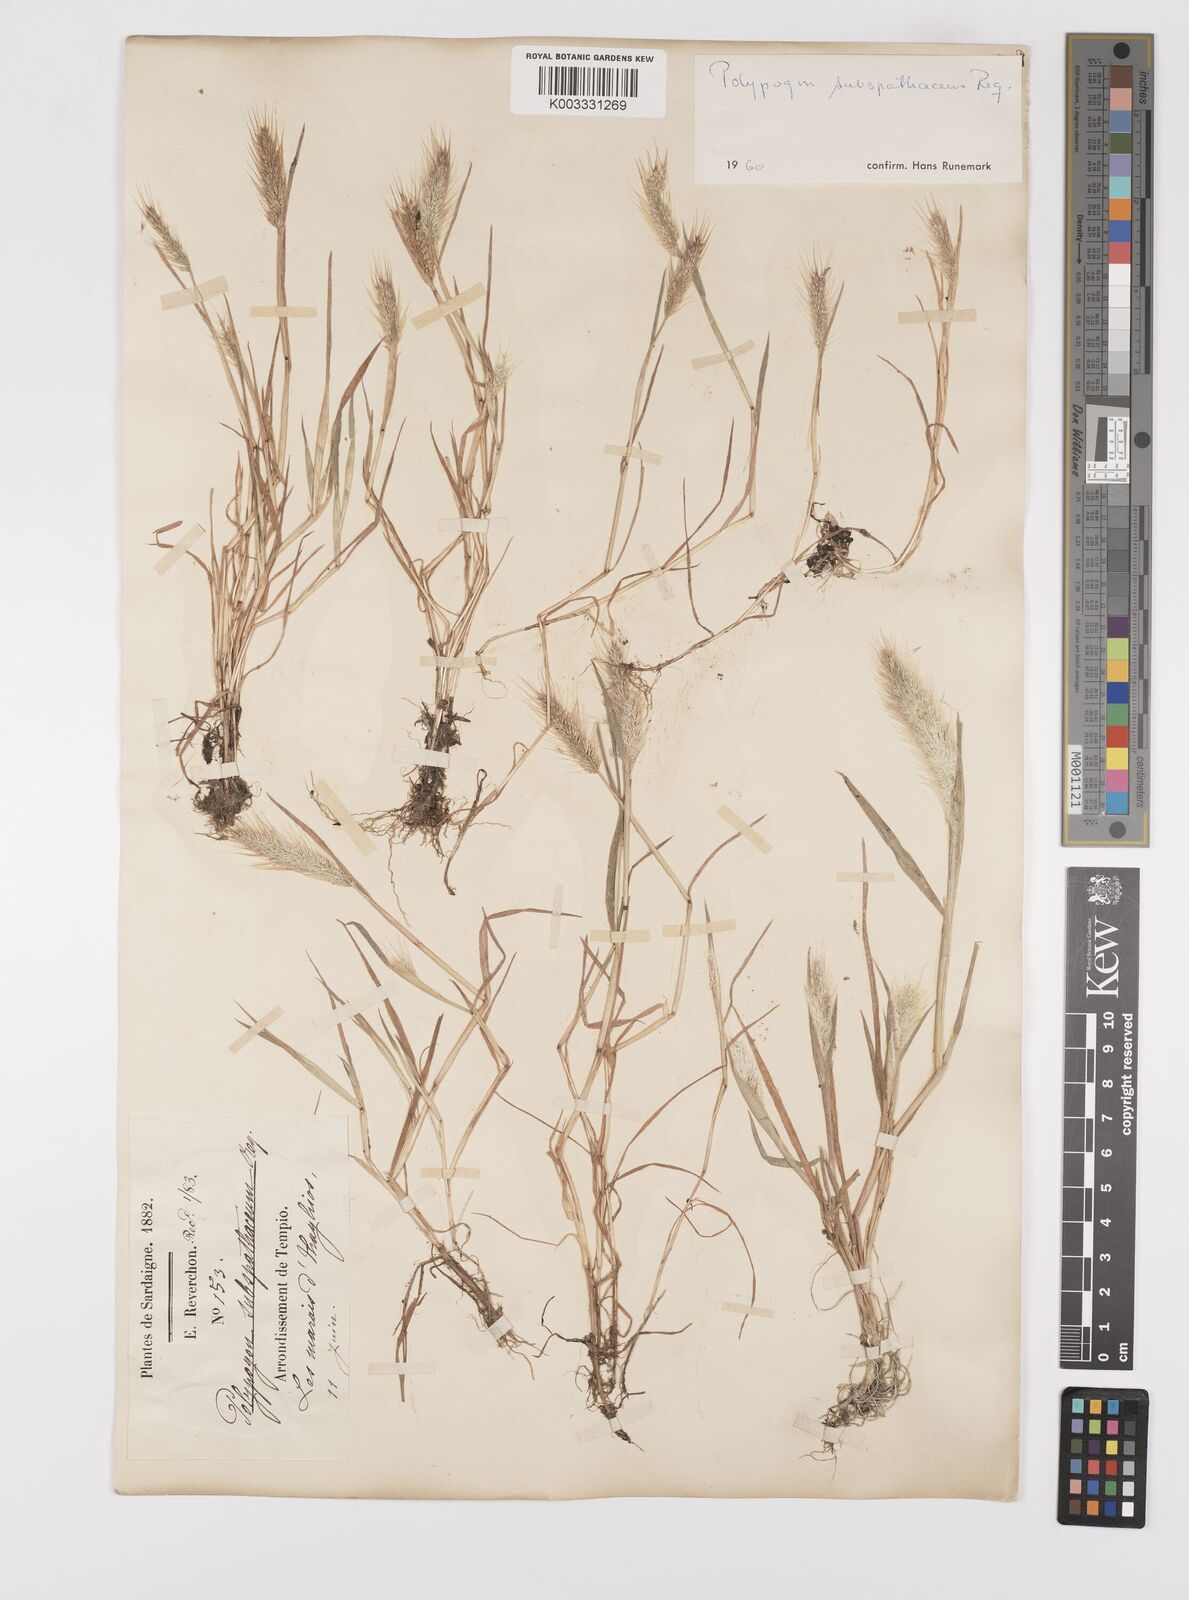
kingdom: Plantae
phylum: Tracheophyta
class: Liliopsida
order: Poales
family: Poaceae
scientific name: Poaceae
